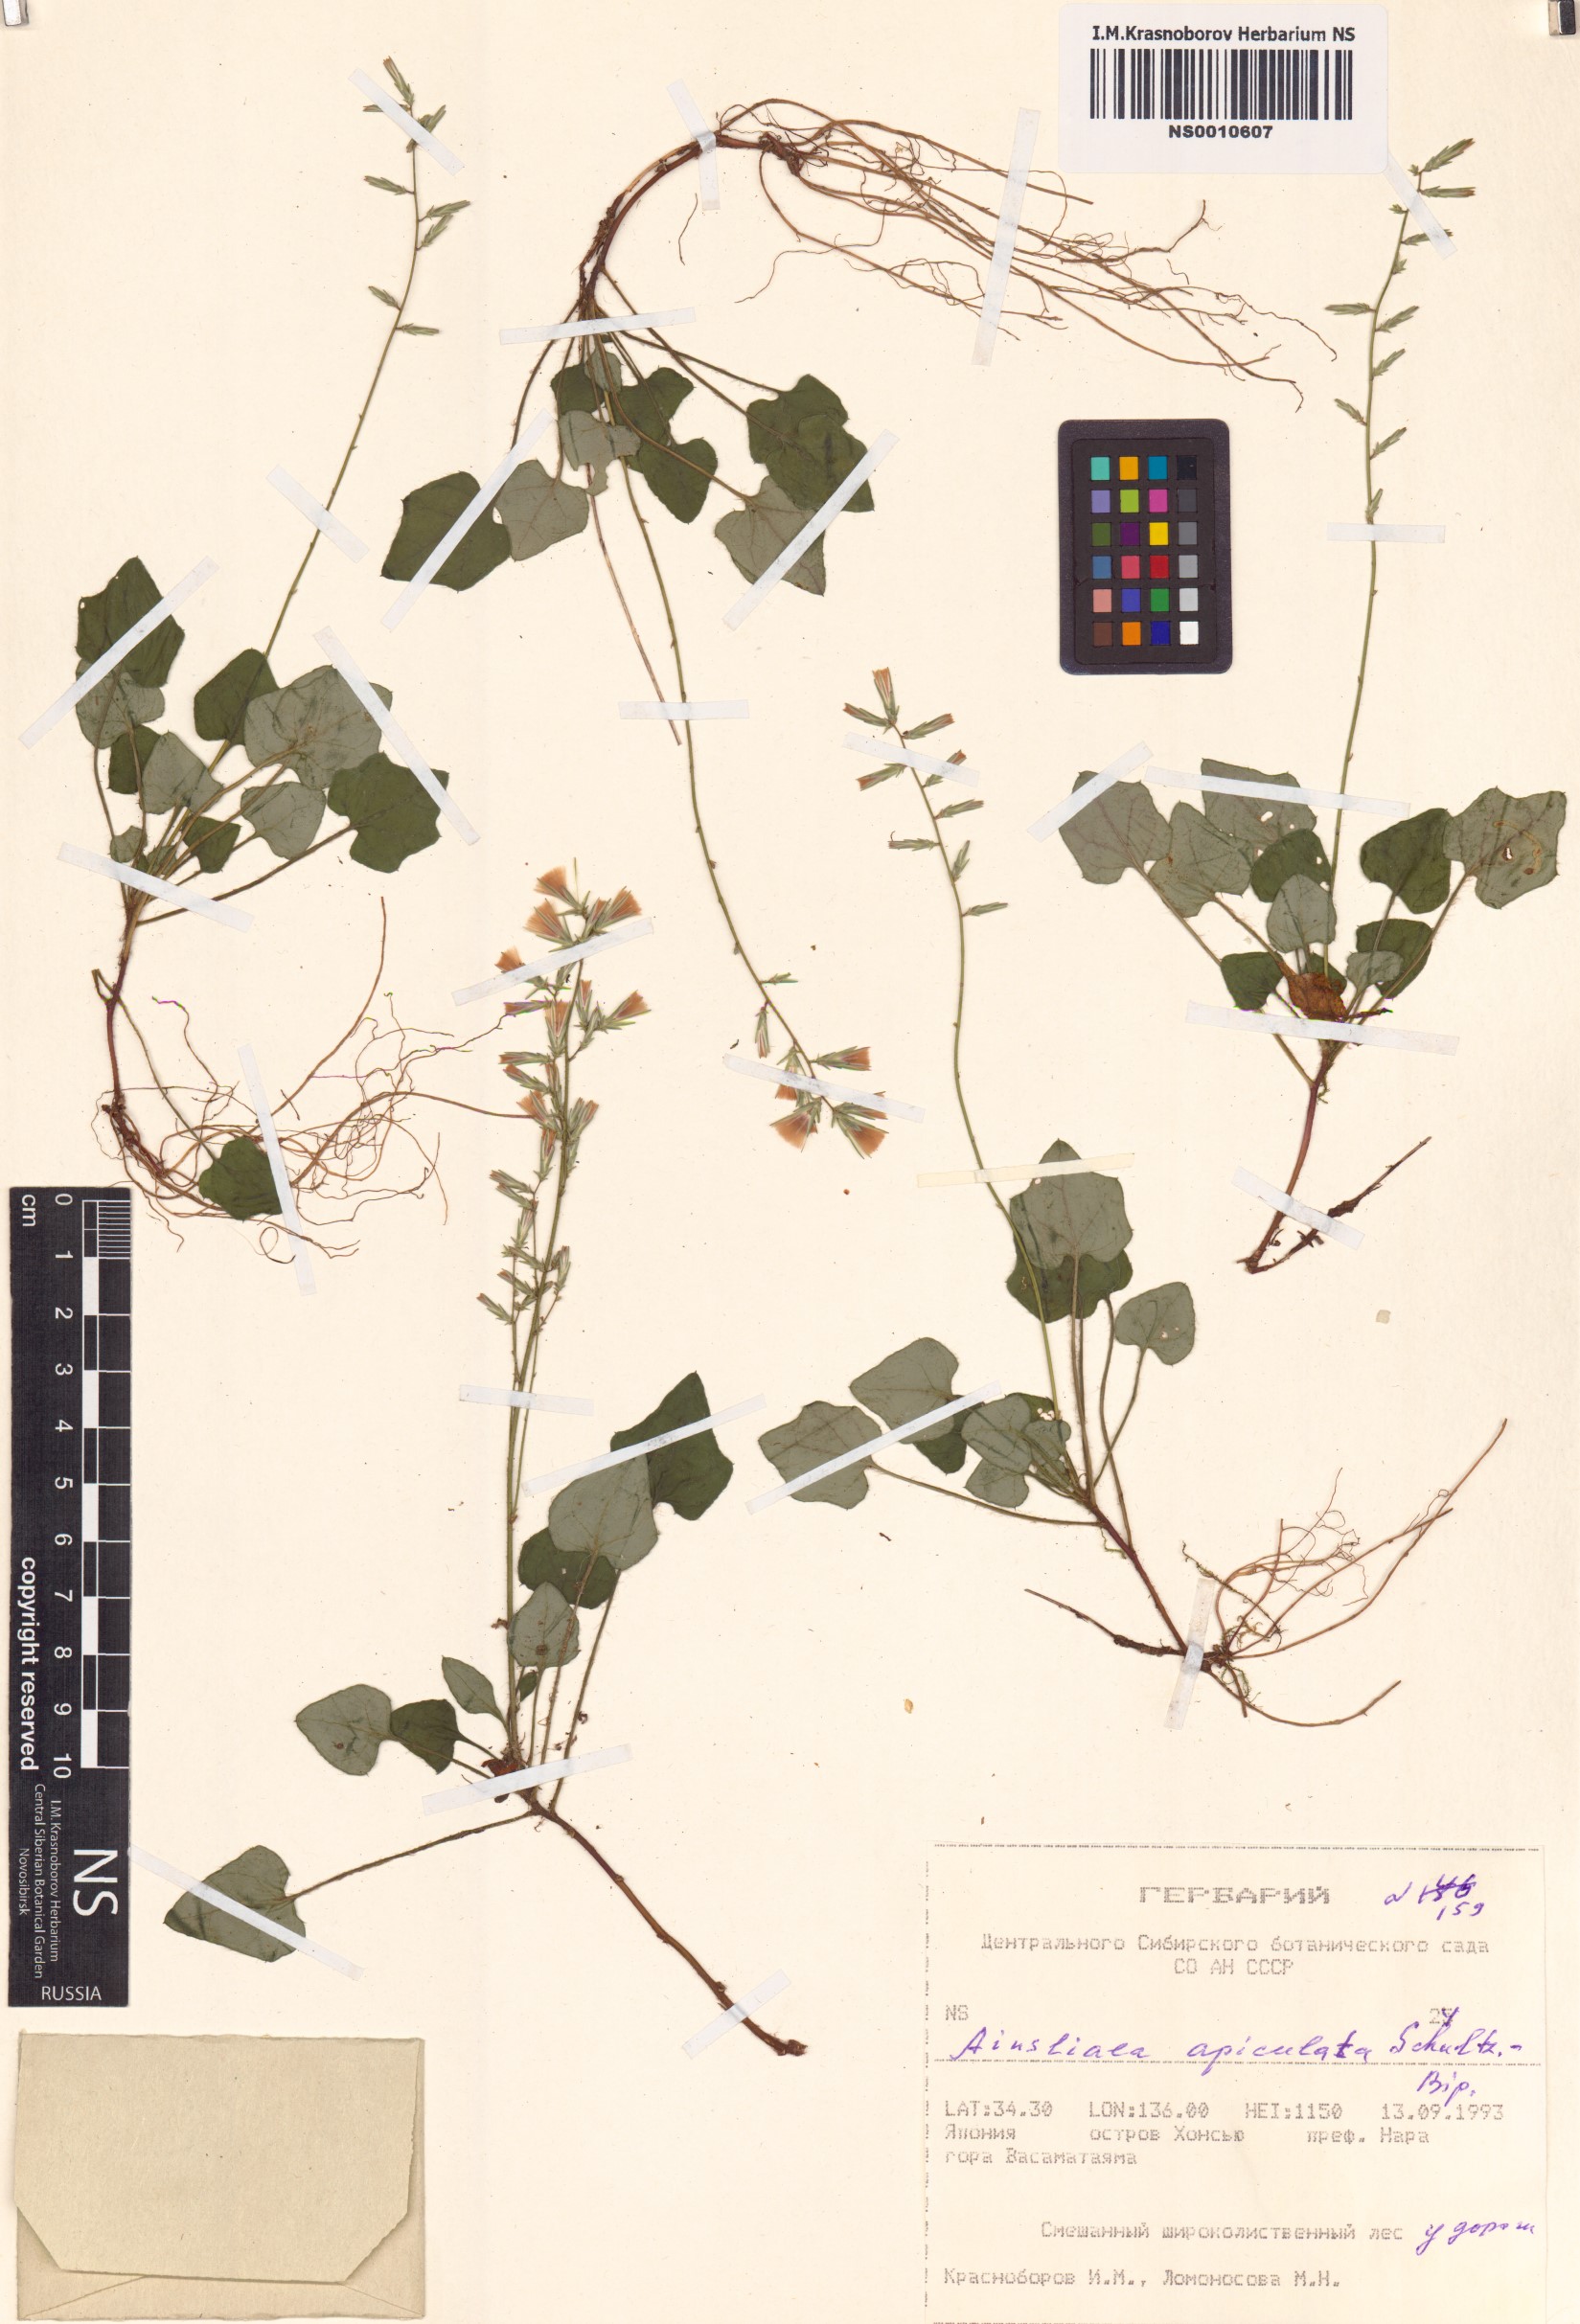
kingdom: Plantae
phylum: Tracheophyta
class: Magnoliopsida
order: Asterales
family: Asteraceae
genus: Ainsliaea
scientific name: Ainsliaea apiculata
